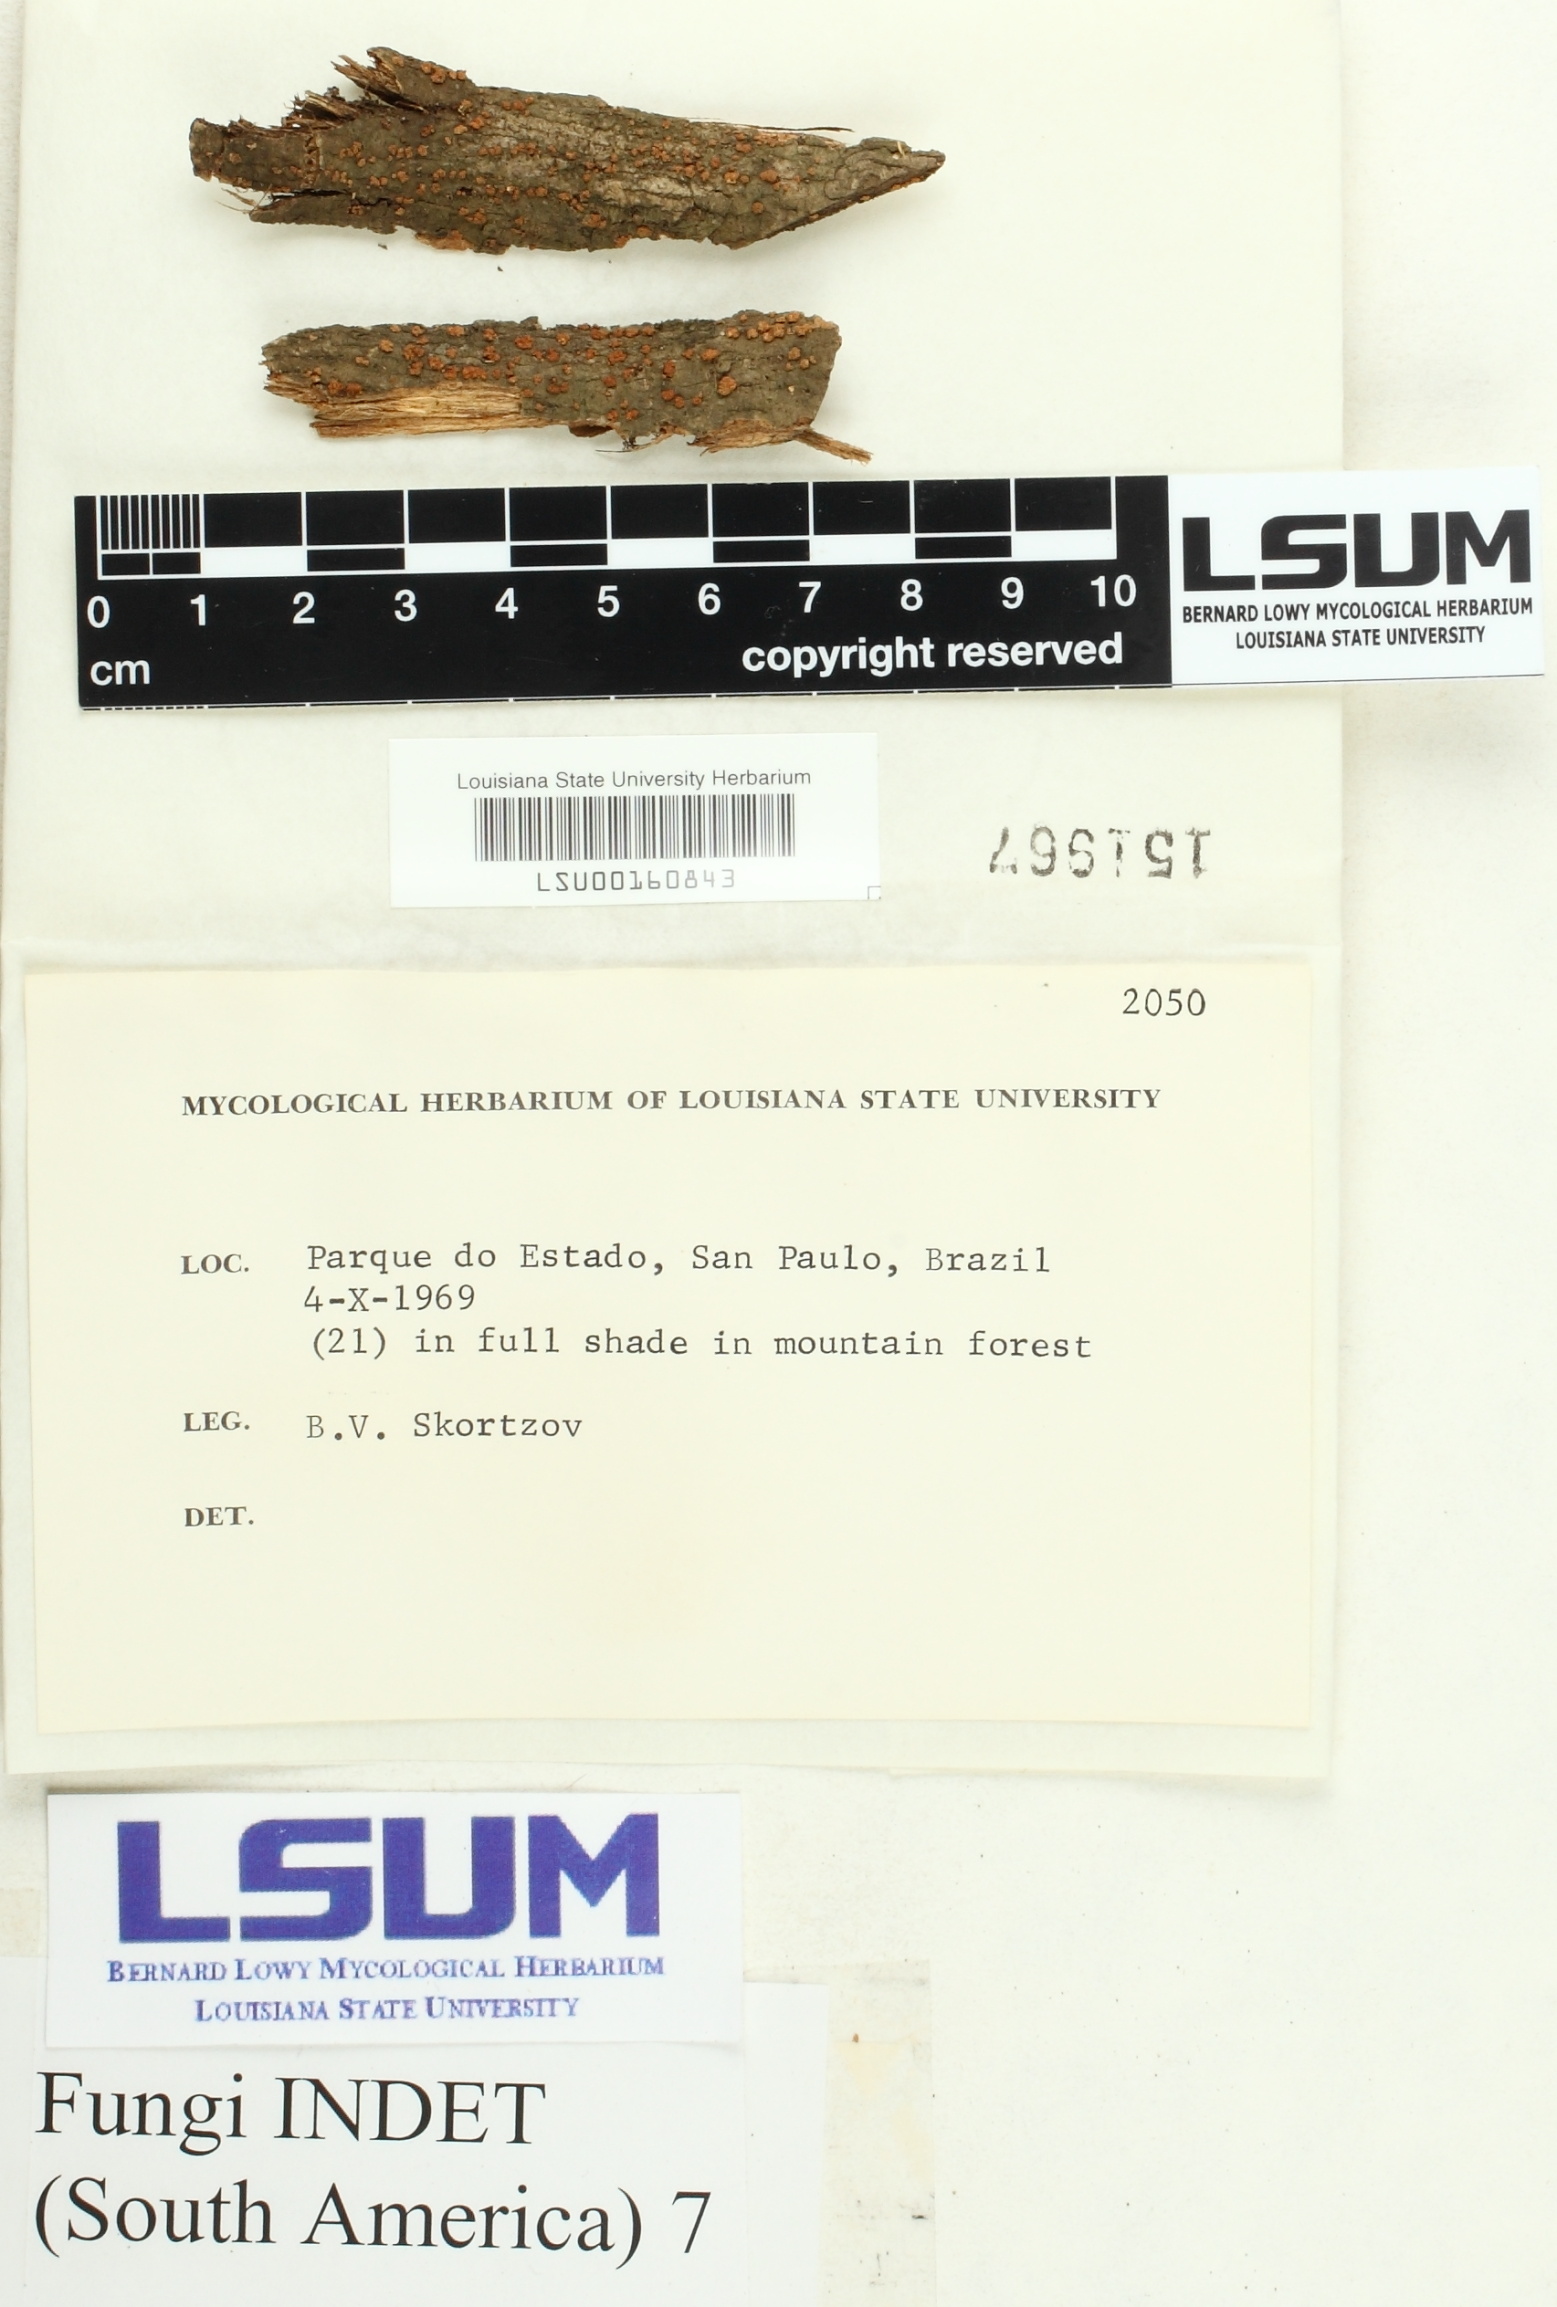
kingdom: Fungi
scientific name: Fungi
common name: Fungi
